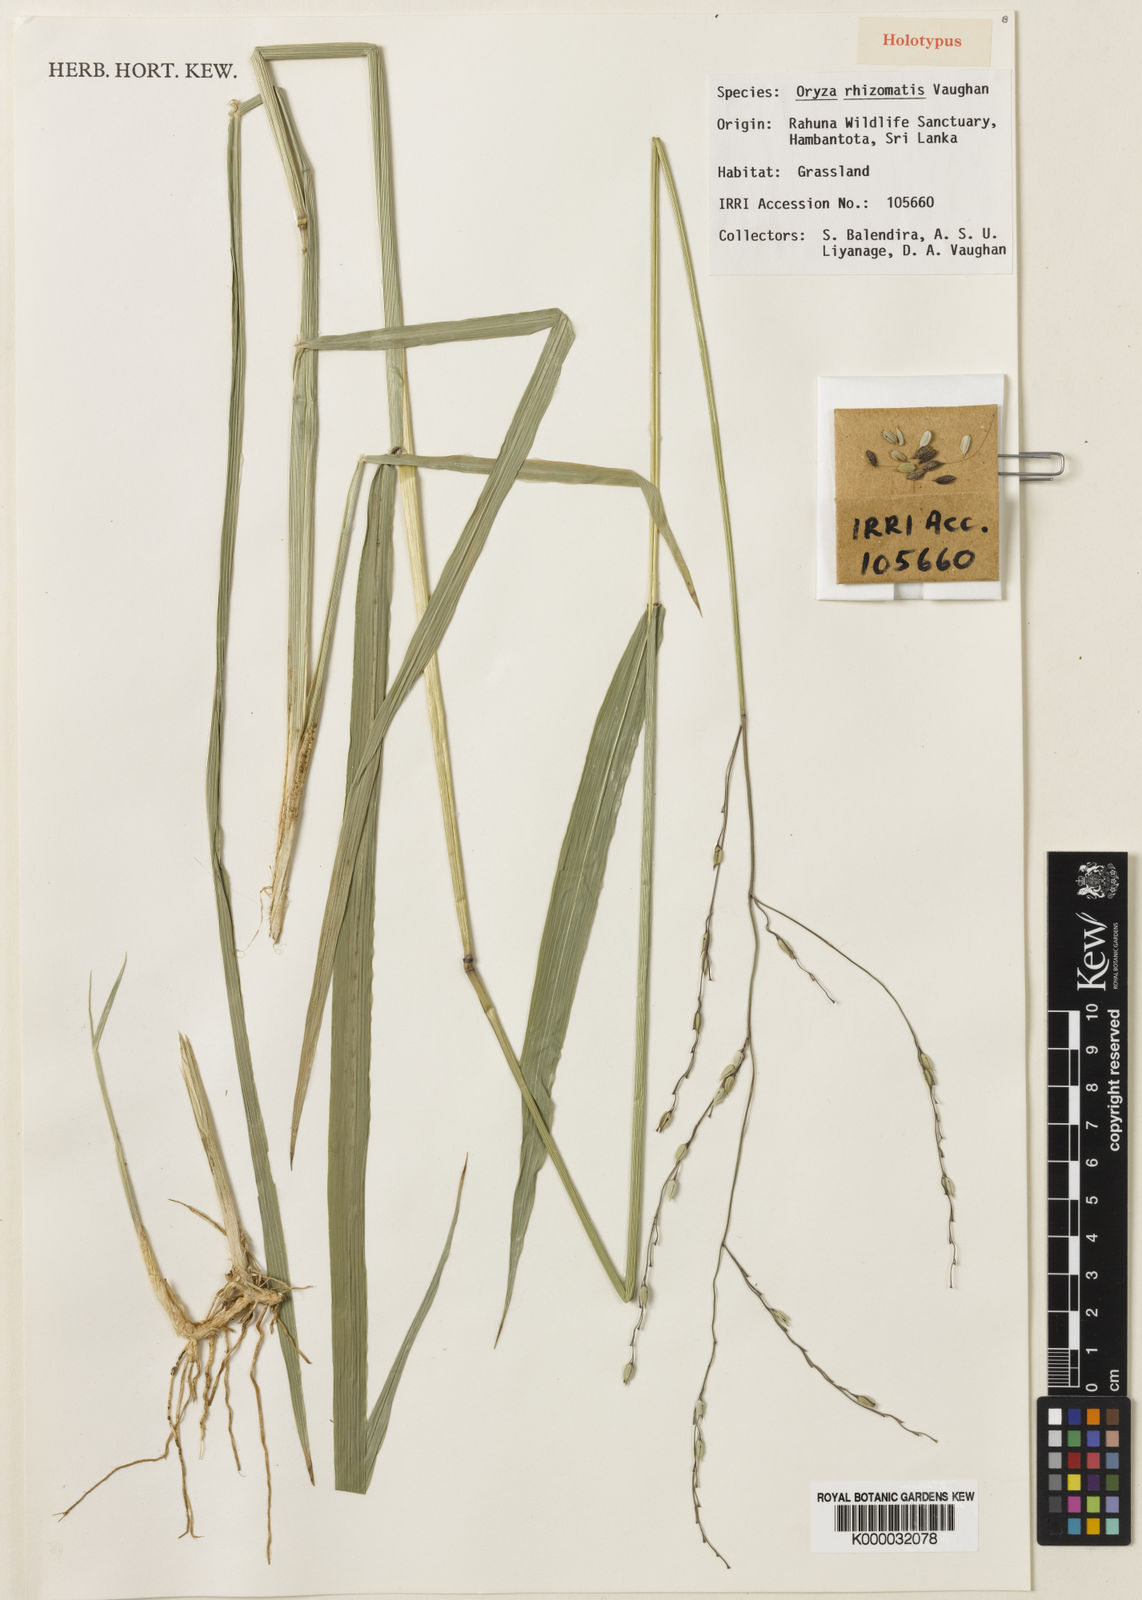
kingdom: Plantae
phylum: Tracheophyta
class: Liliopsida
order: Poales
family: Poaceae
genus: Oryza
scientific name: Oryza eichingeri
